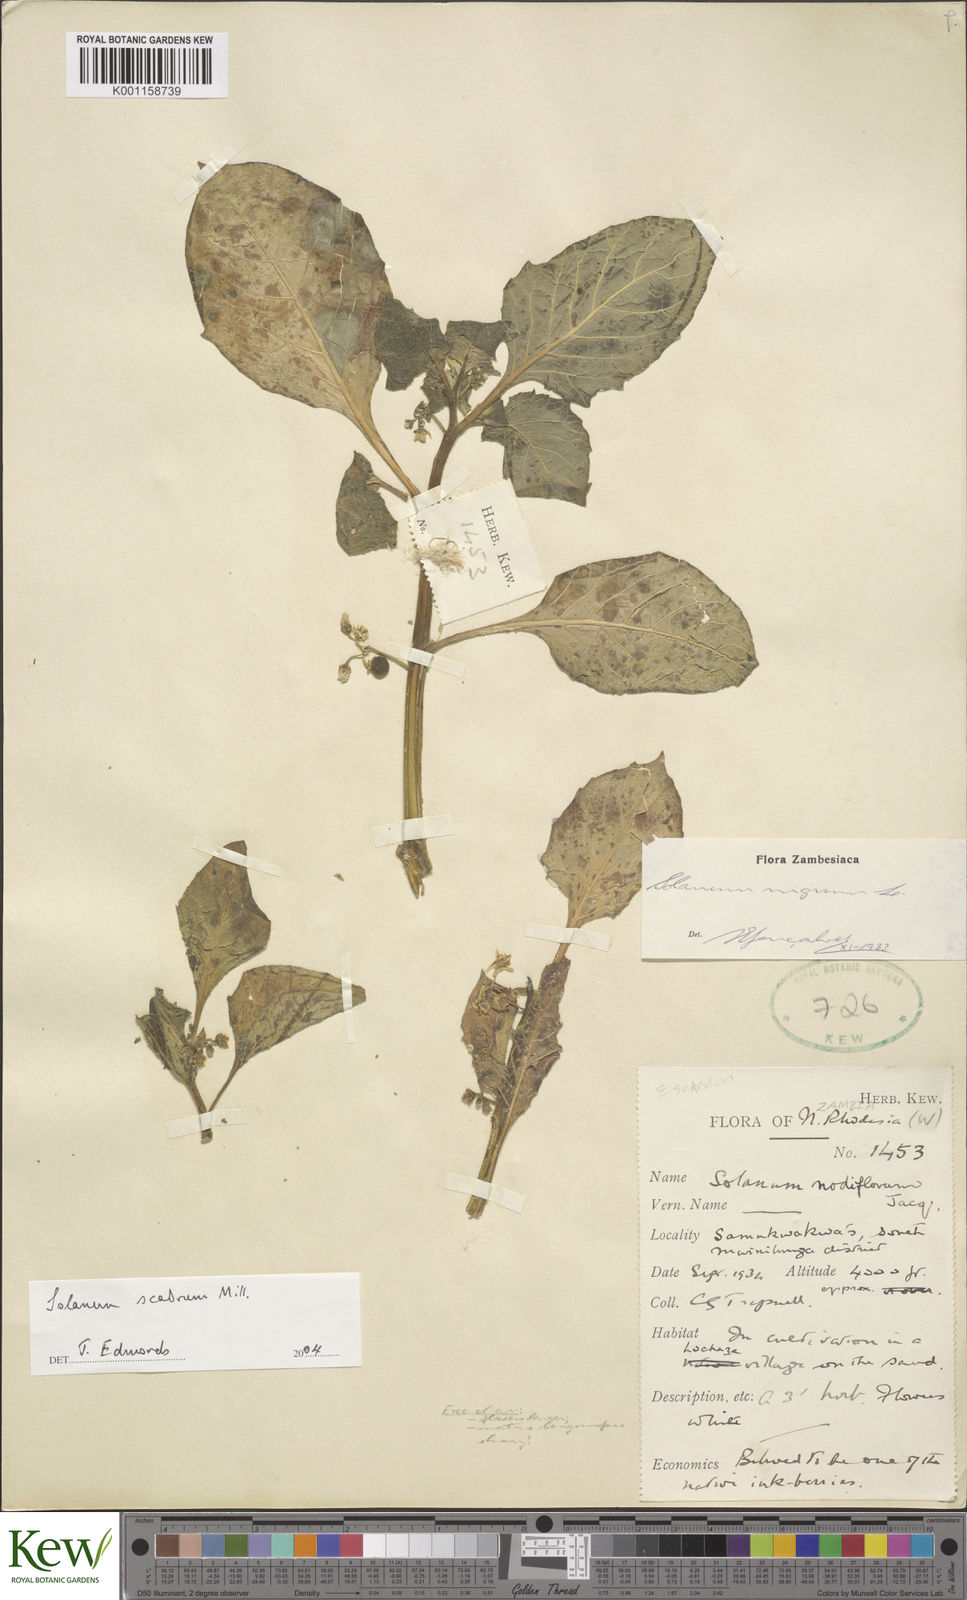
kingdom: Plantae
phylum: Tracheophyta
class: Magnoliopsida
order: Solanales
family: Solanaceae
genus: Solanum
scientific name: Solanum scabrum
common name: Garden-huckleberry
